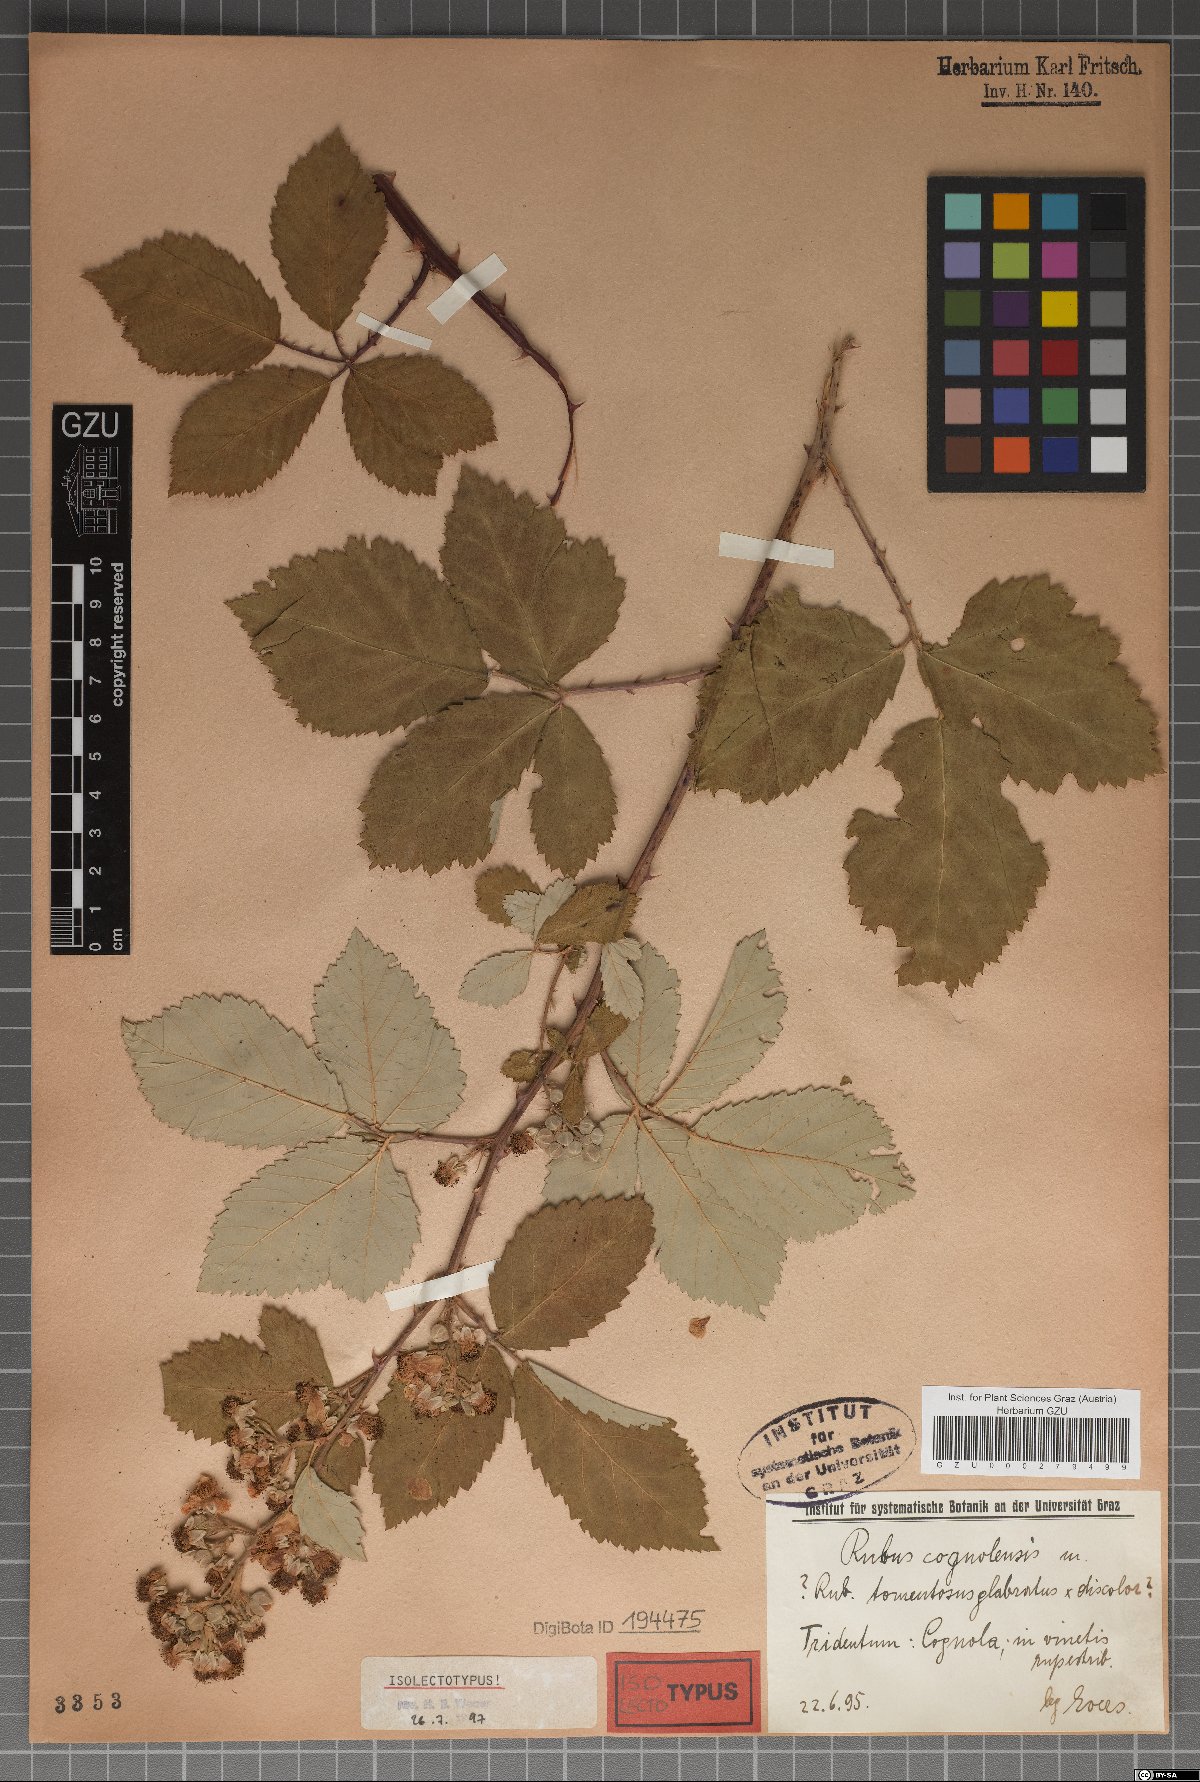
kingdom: Plantae
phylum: Tracheophyta
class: Magnoliopsida
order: Rosales
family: Rosaceae
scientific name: Rosaceae
